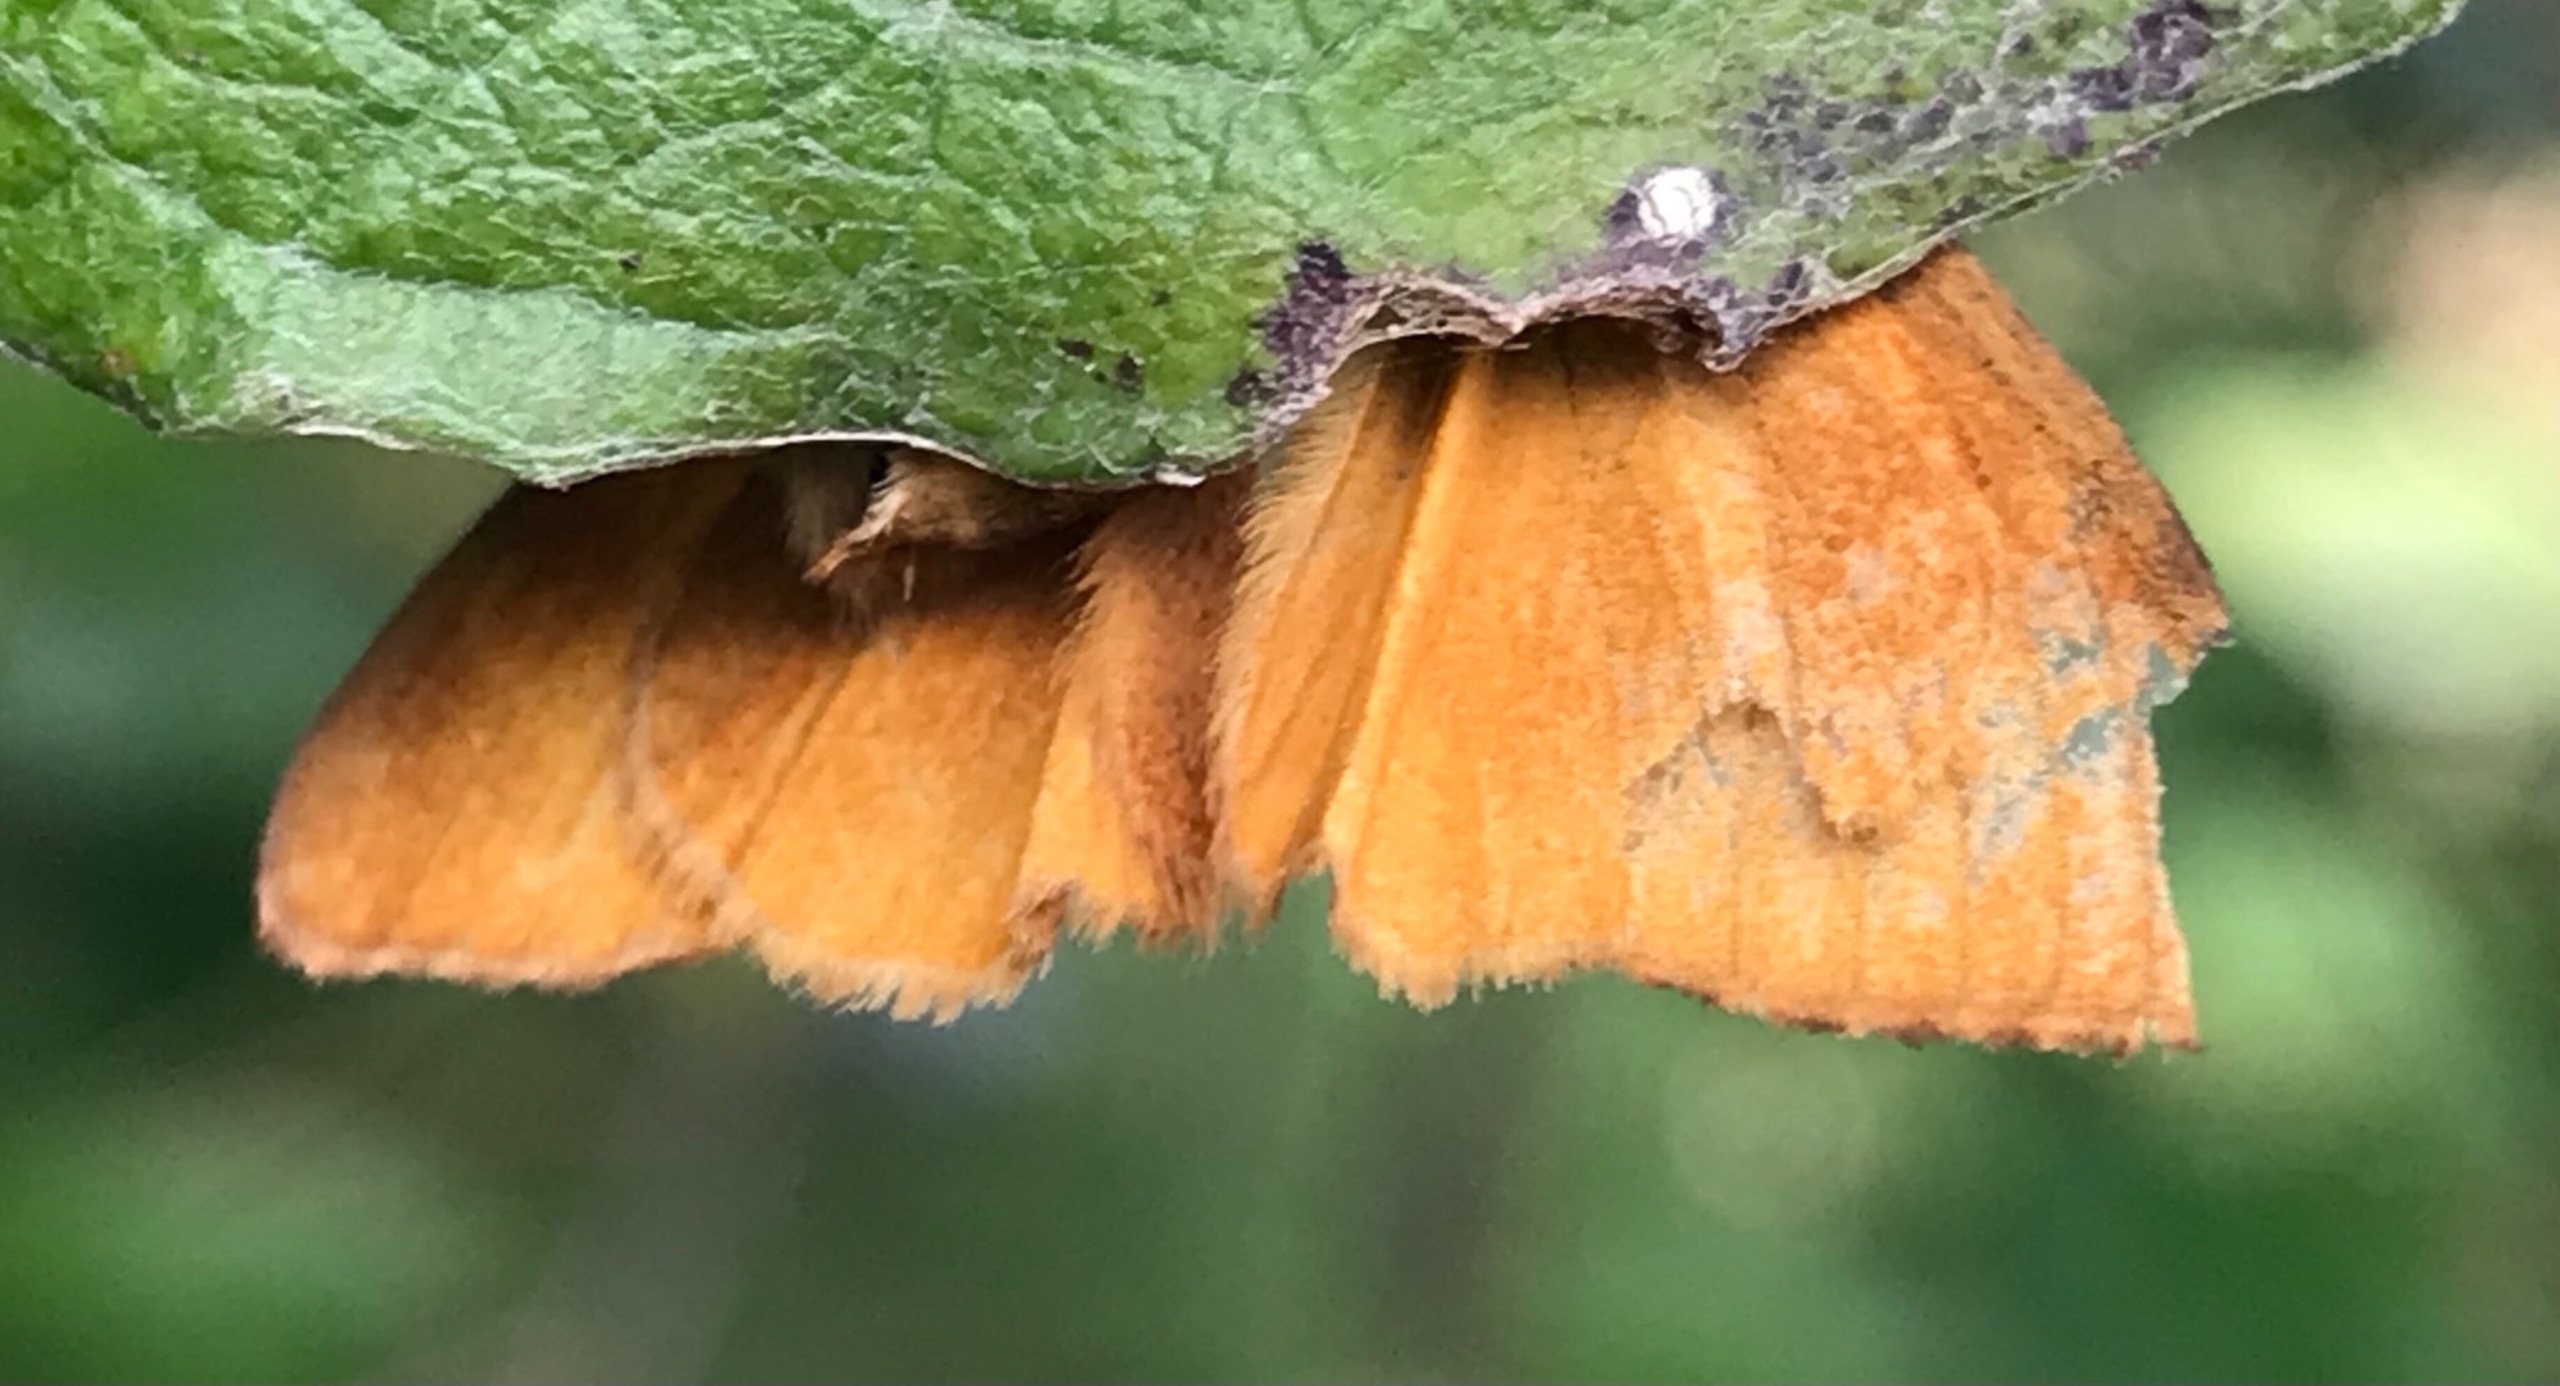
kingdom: Animalia
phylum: Arthropoda
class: Insecta
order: Lepidoptera
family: Erebidae
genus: Orgyia
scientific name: Orgyia antiqua
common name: Lille penselspinder
